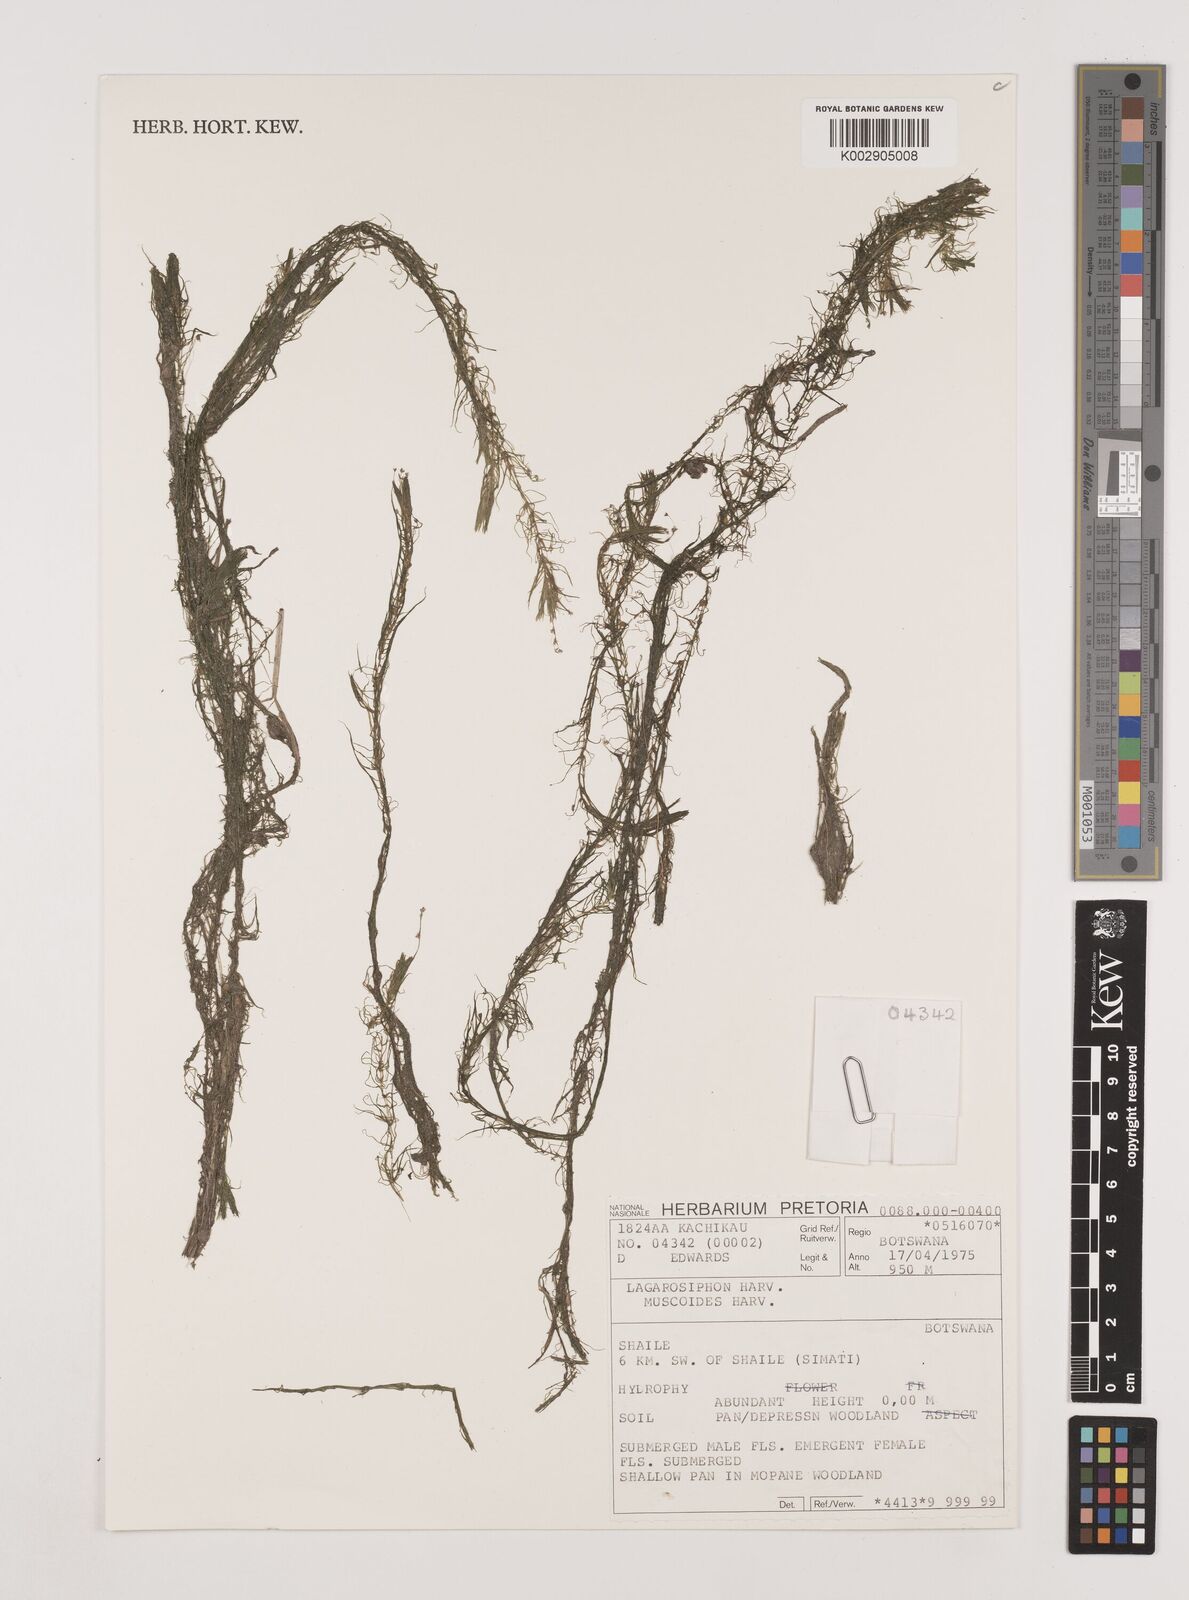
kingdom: Plantae
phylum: Tracheophyta
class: Liliopsida
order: Alismatales
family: Hydrocharitaceae
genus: Lagarosiphon
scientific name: Lagarosiphon muscoides
